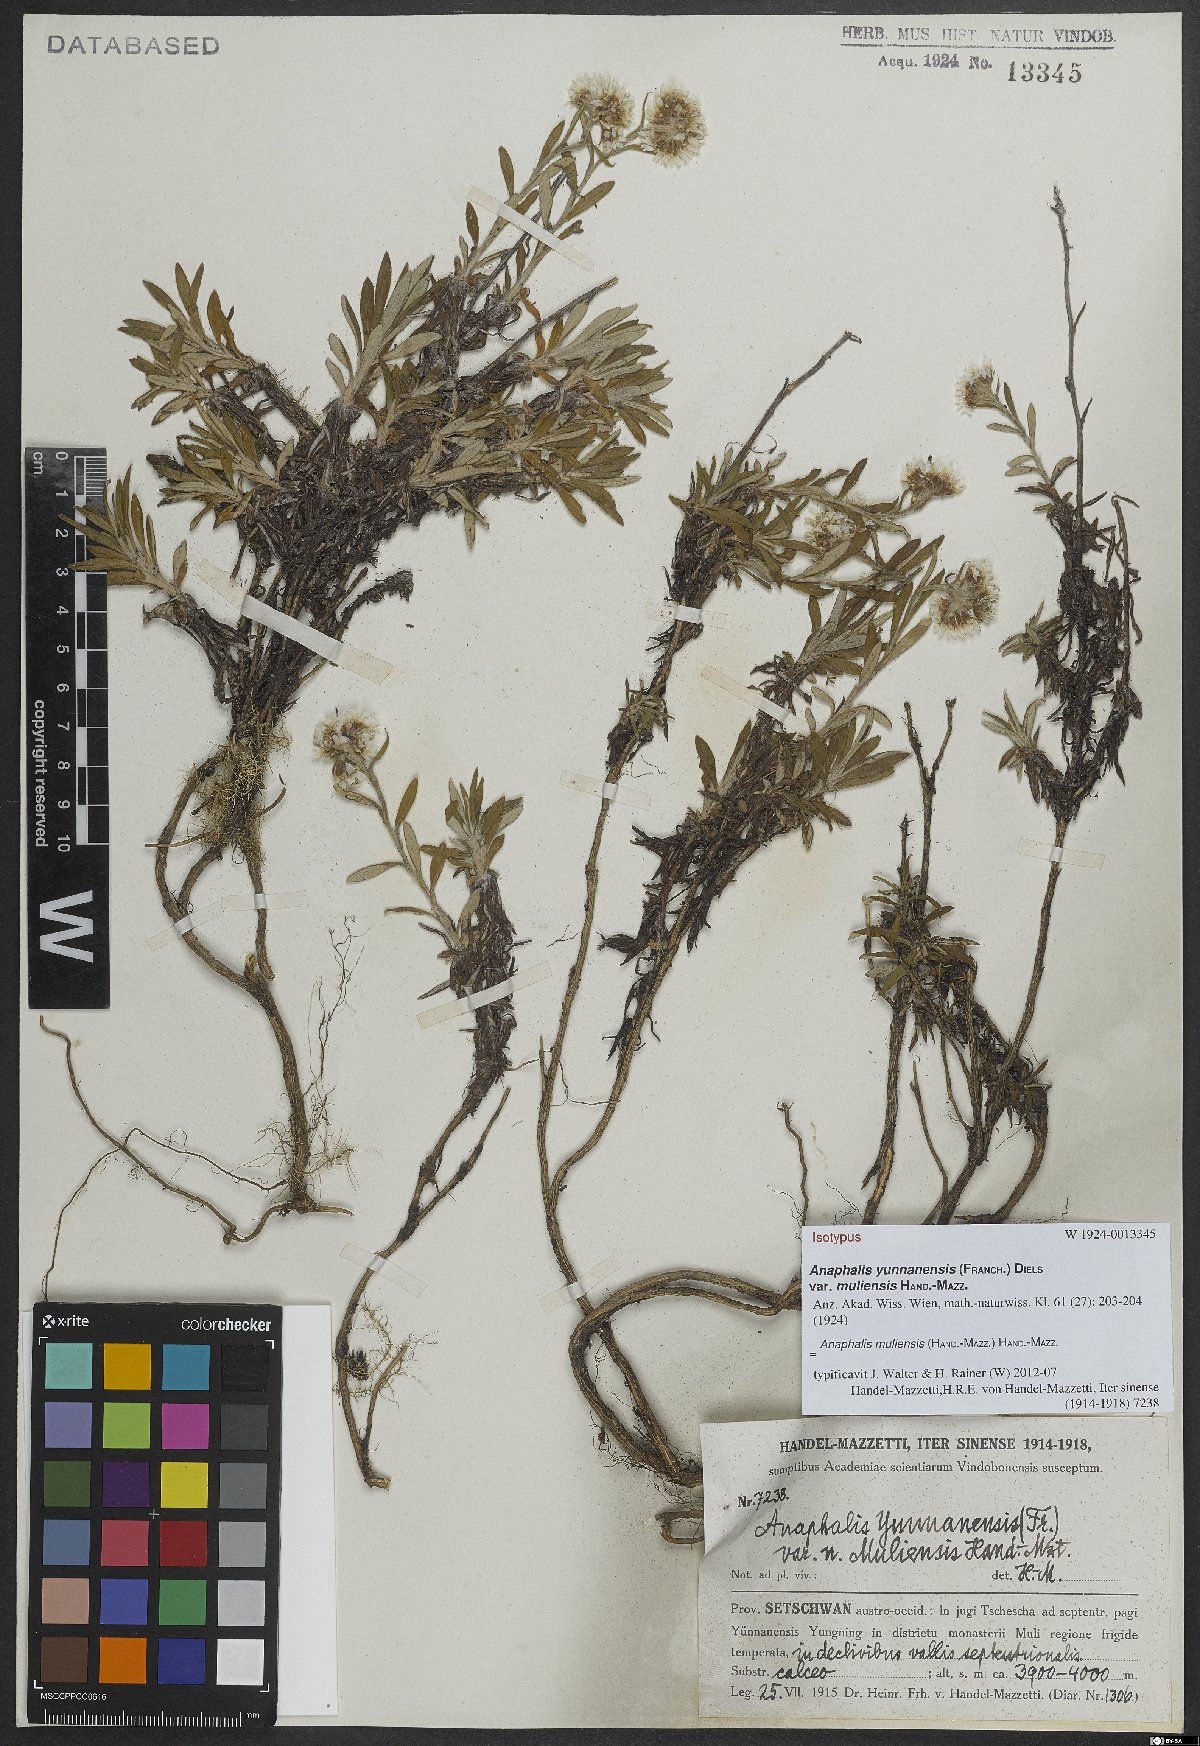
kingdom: Plantae
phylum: Tracheophyta
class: Magnoliopsida
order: Asterales
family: Asteraceae
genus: Anaphalis
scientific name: Anaphalis yunnanensis
